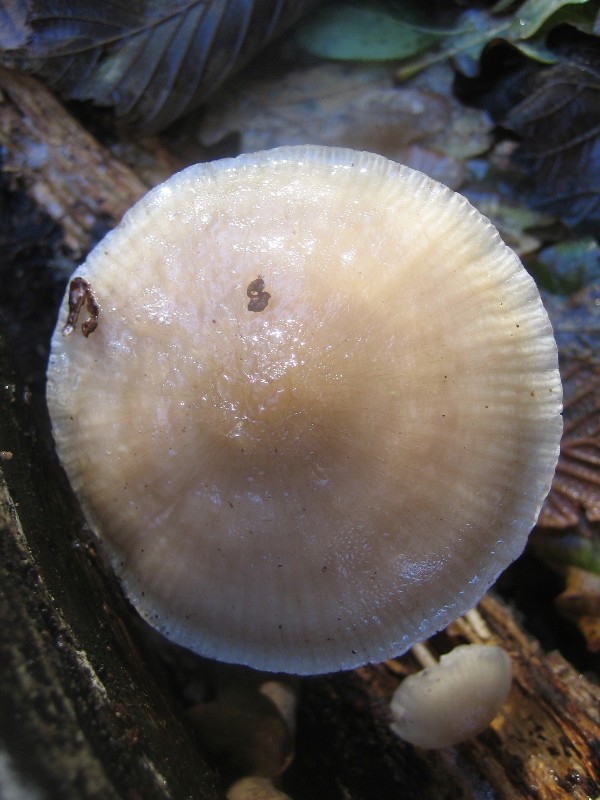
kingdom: Fungi
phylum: Basidiomycota
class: Agaricomycetes
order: Agaricales
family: Mycenaceae
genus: Mycena
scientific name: Mycena galericulata
